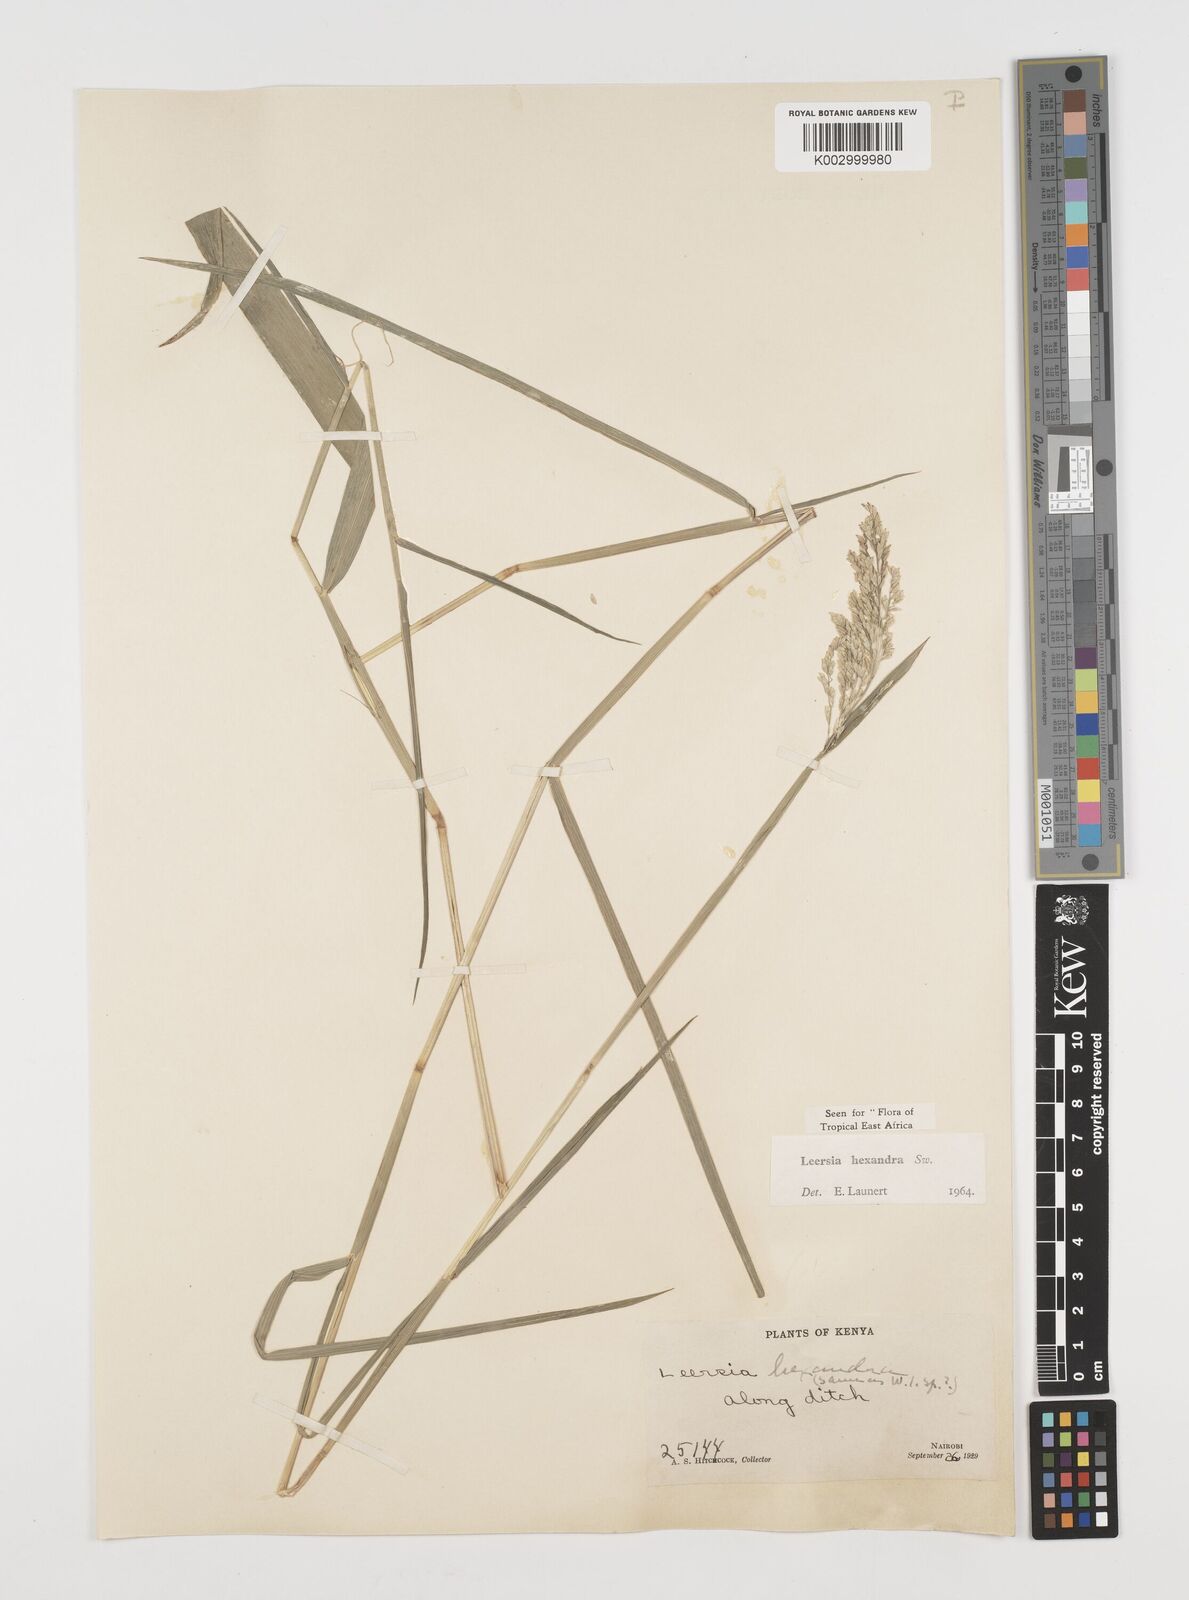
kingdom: Plantae
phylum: Tracheophyta
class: Liliopsida
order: Poales
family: Poaceae
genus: Leersia
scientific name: Leersia hexandra
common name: Southern cut grass
